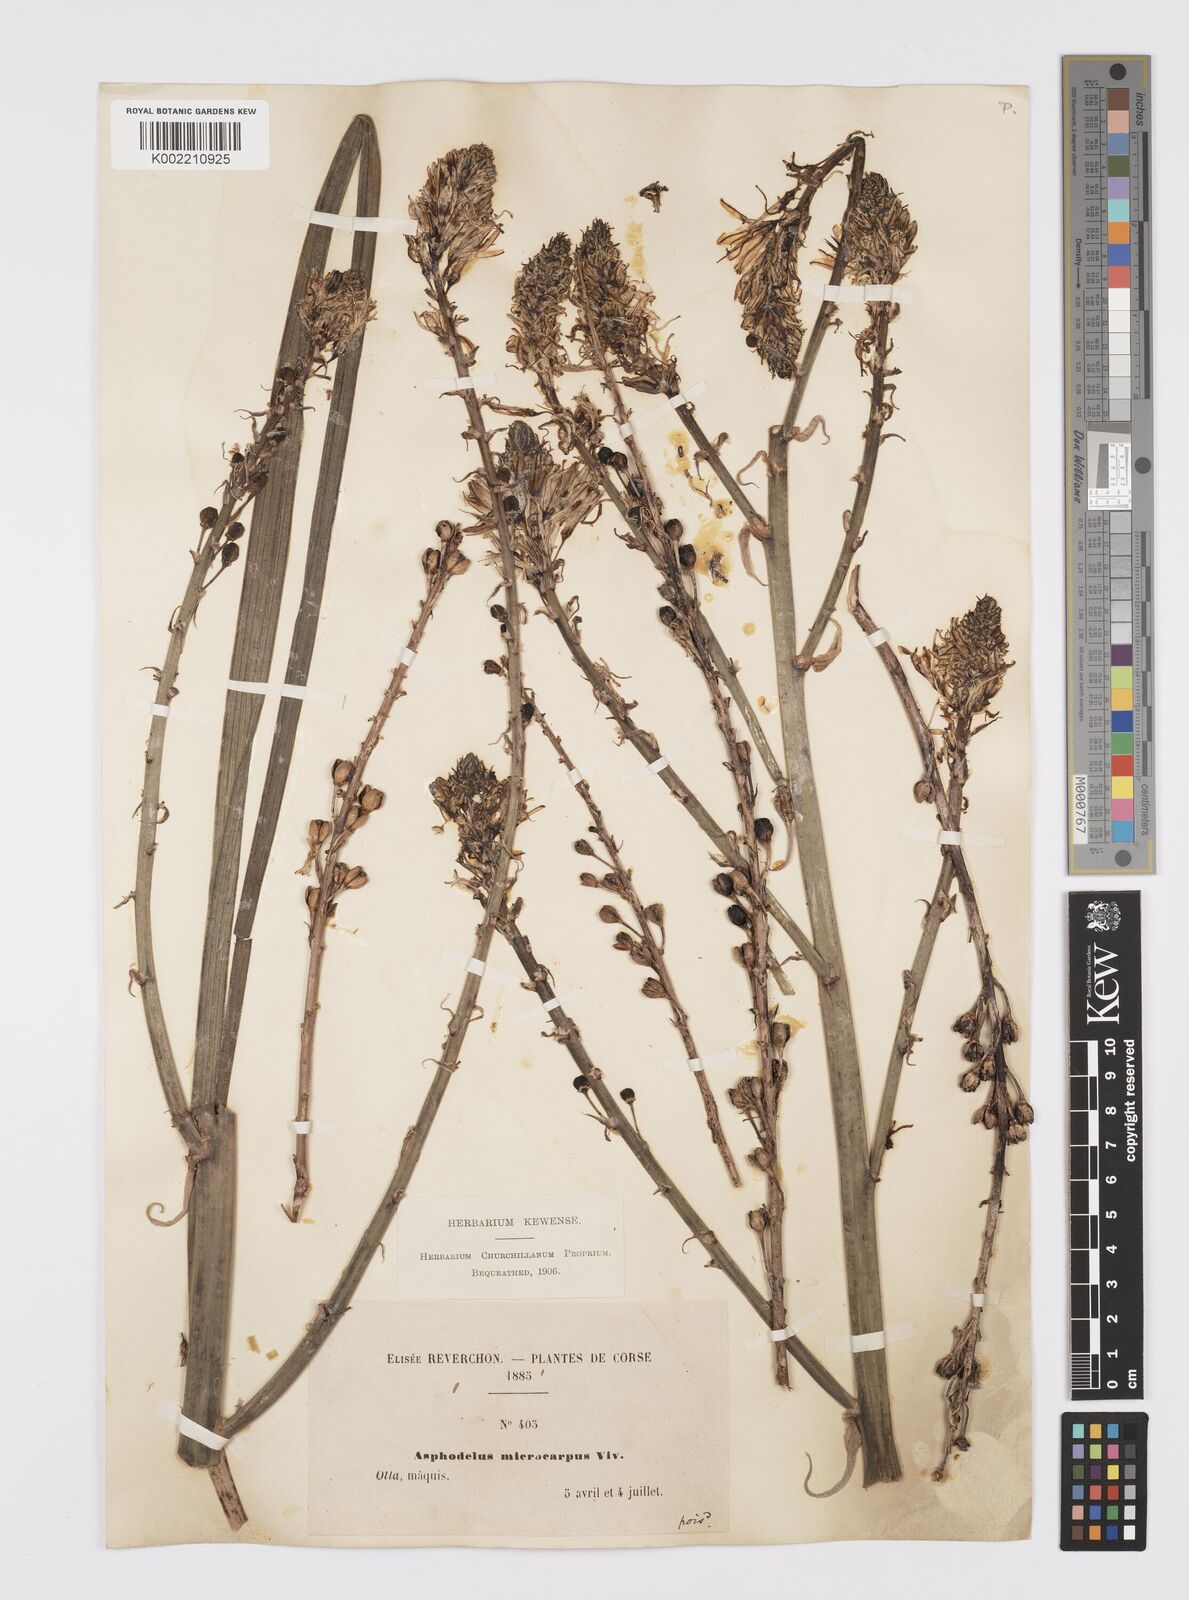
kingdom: Plantae
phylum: Tracheophyta
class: Liliopsida
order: Asparagales
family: Asphodelaceae
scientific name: Asphodelaceae
